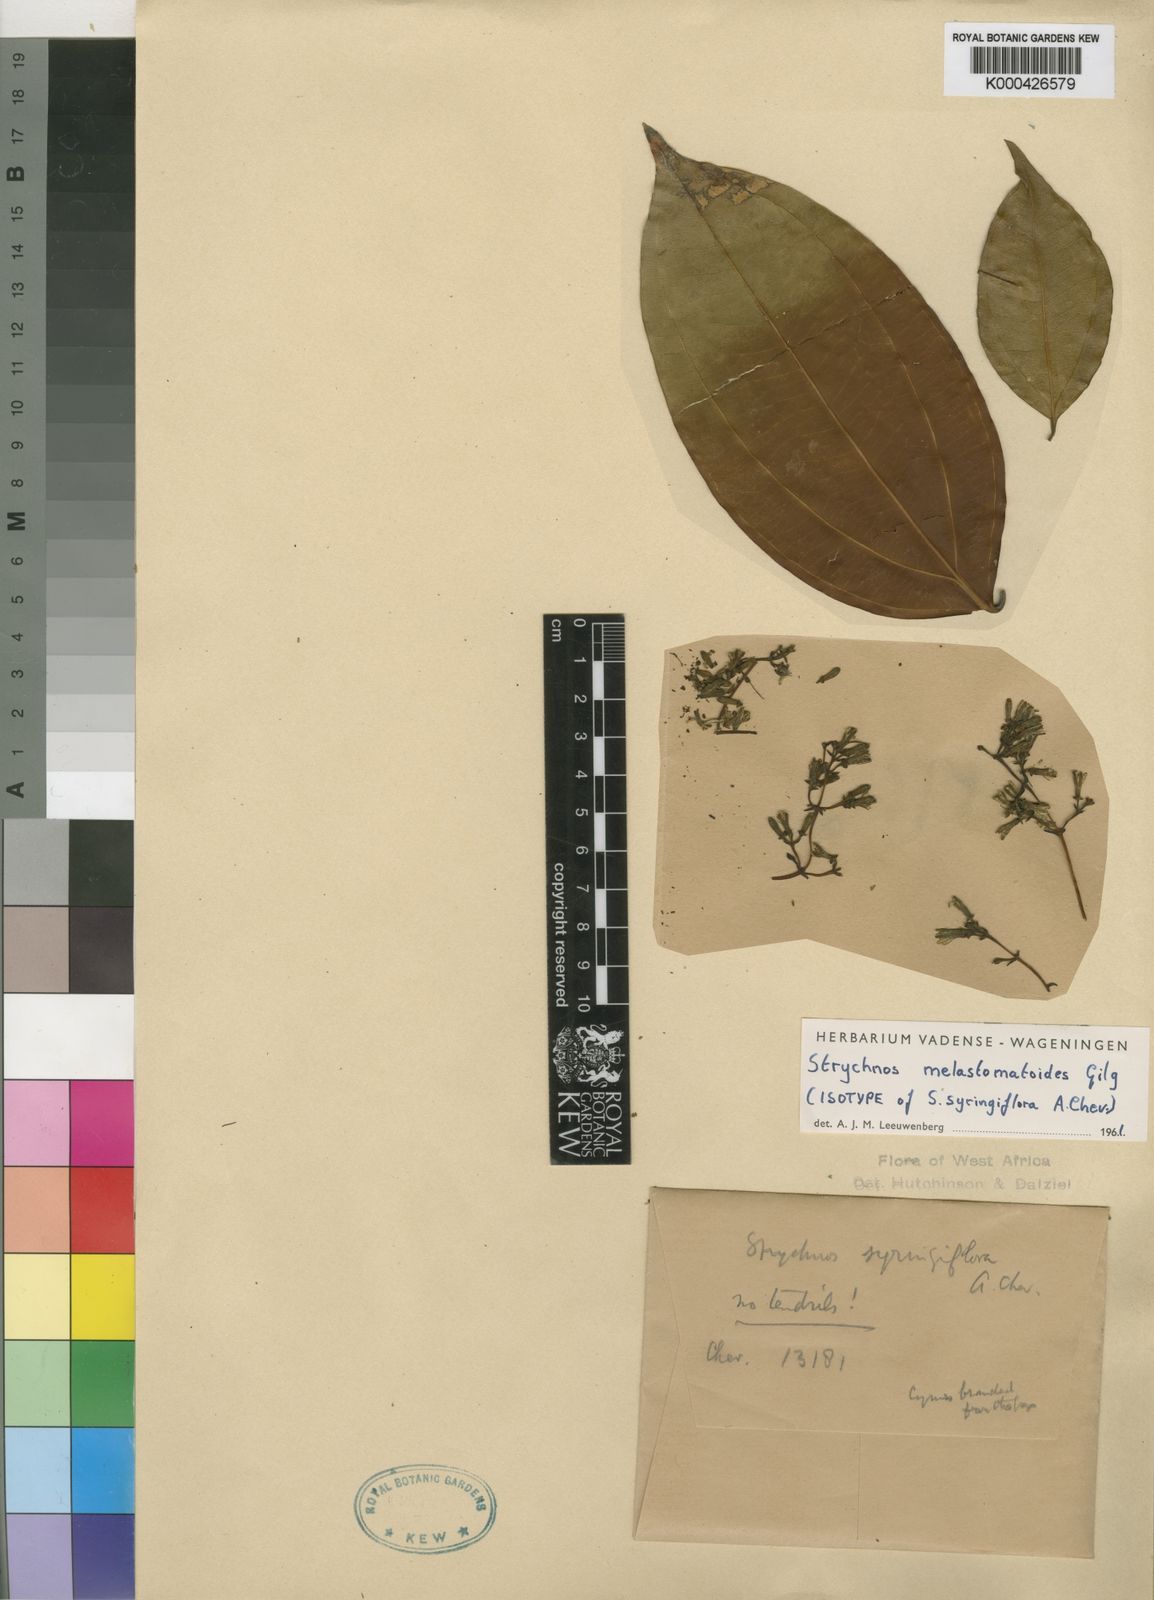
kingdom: Plantae
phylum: Tracheophyta
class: Magnoliopsida
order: Gentianales
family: Loganiaceae
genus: Strychnos
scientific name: Strychnos melastomatoides
